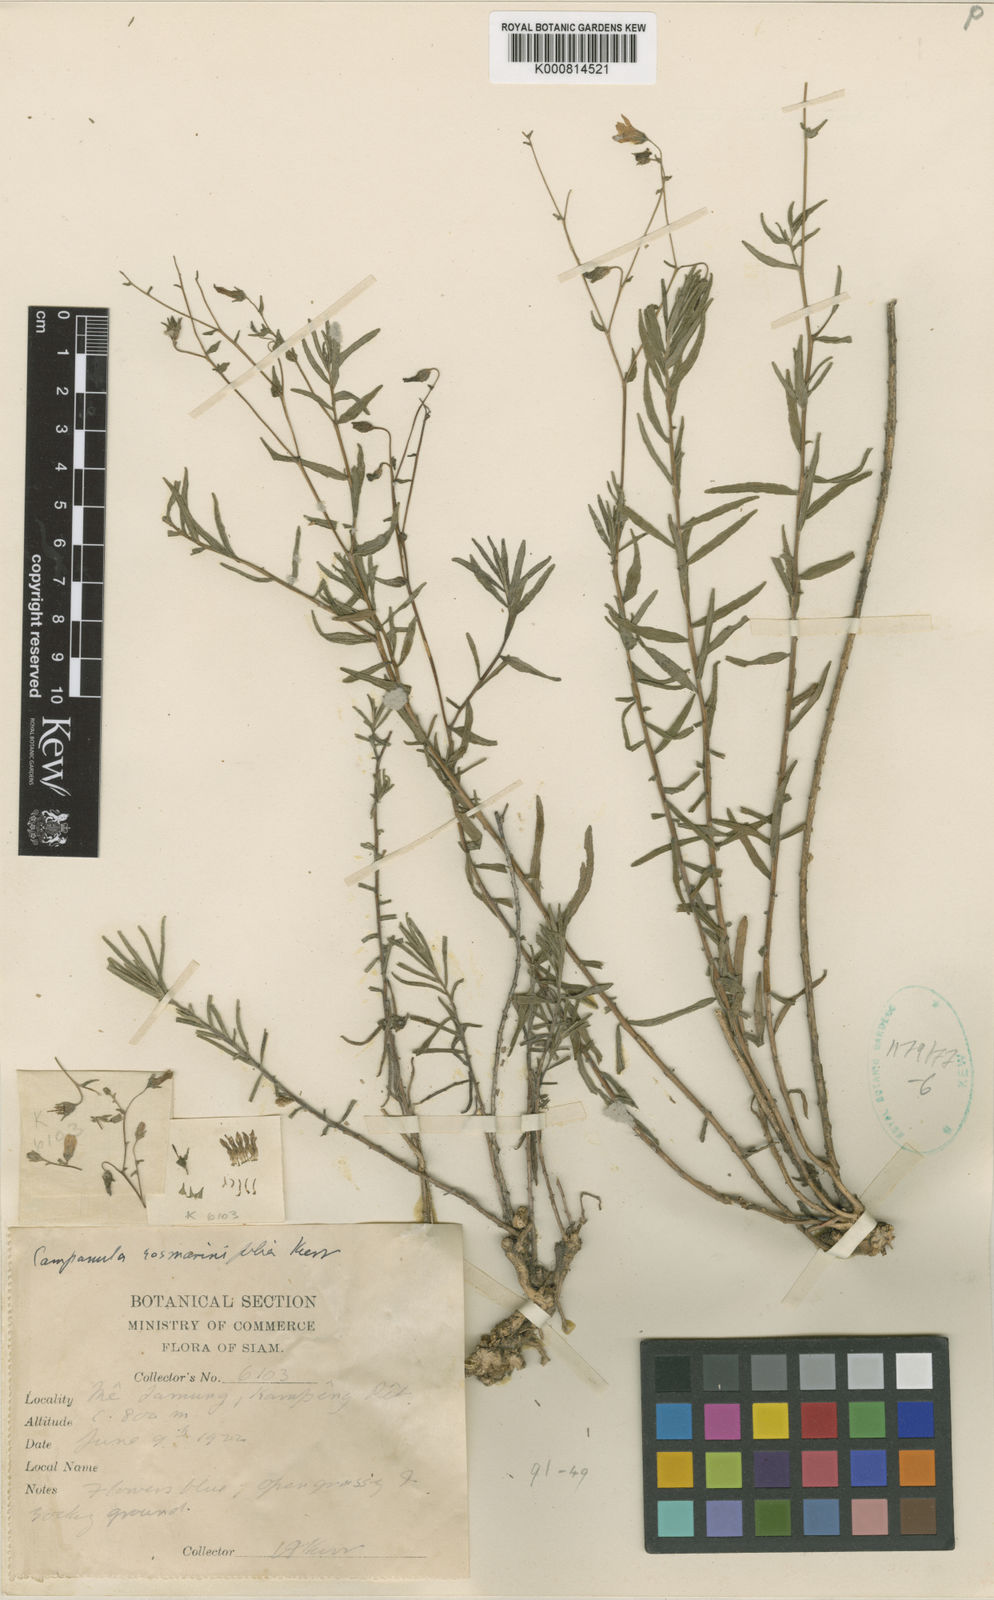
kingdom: Plantae
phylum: Tracheophyta
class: Magnoliopsida
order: Asterales
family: Campanulaceae
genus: Campanula
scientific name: Campanula rosmarinifolia
